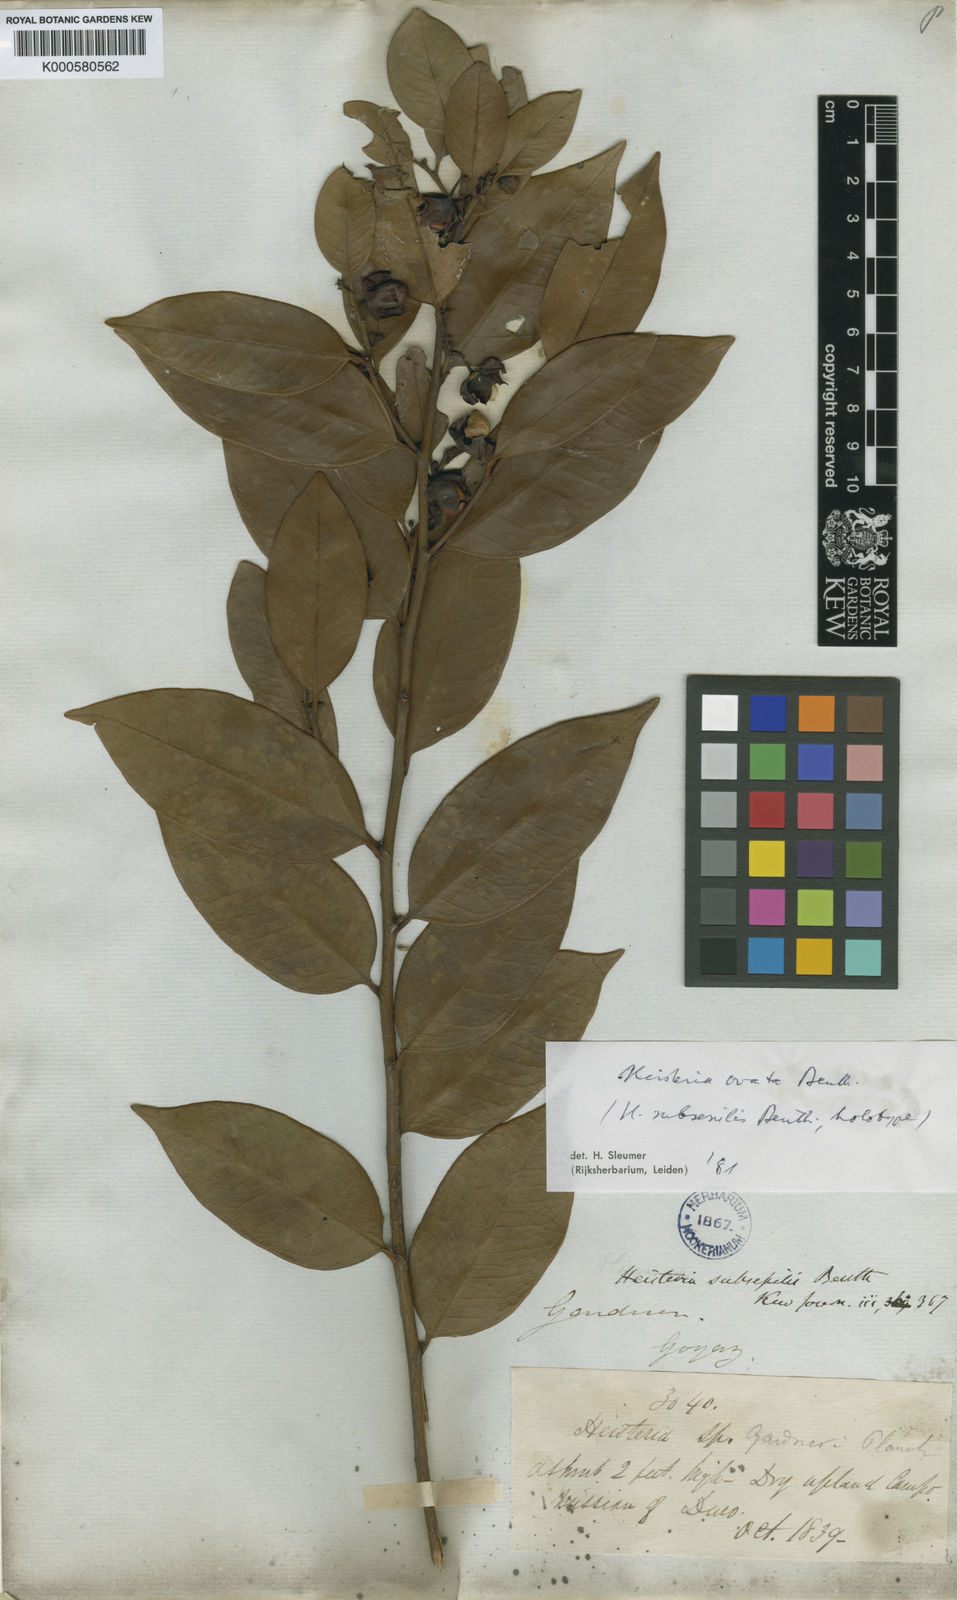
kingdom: Plantae
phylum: Tracheophyta
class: Magnoliopsida
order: Santalales
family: Erythropalaceae
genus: Heisteria
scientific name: Heisteria ovata
